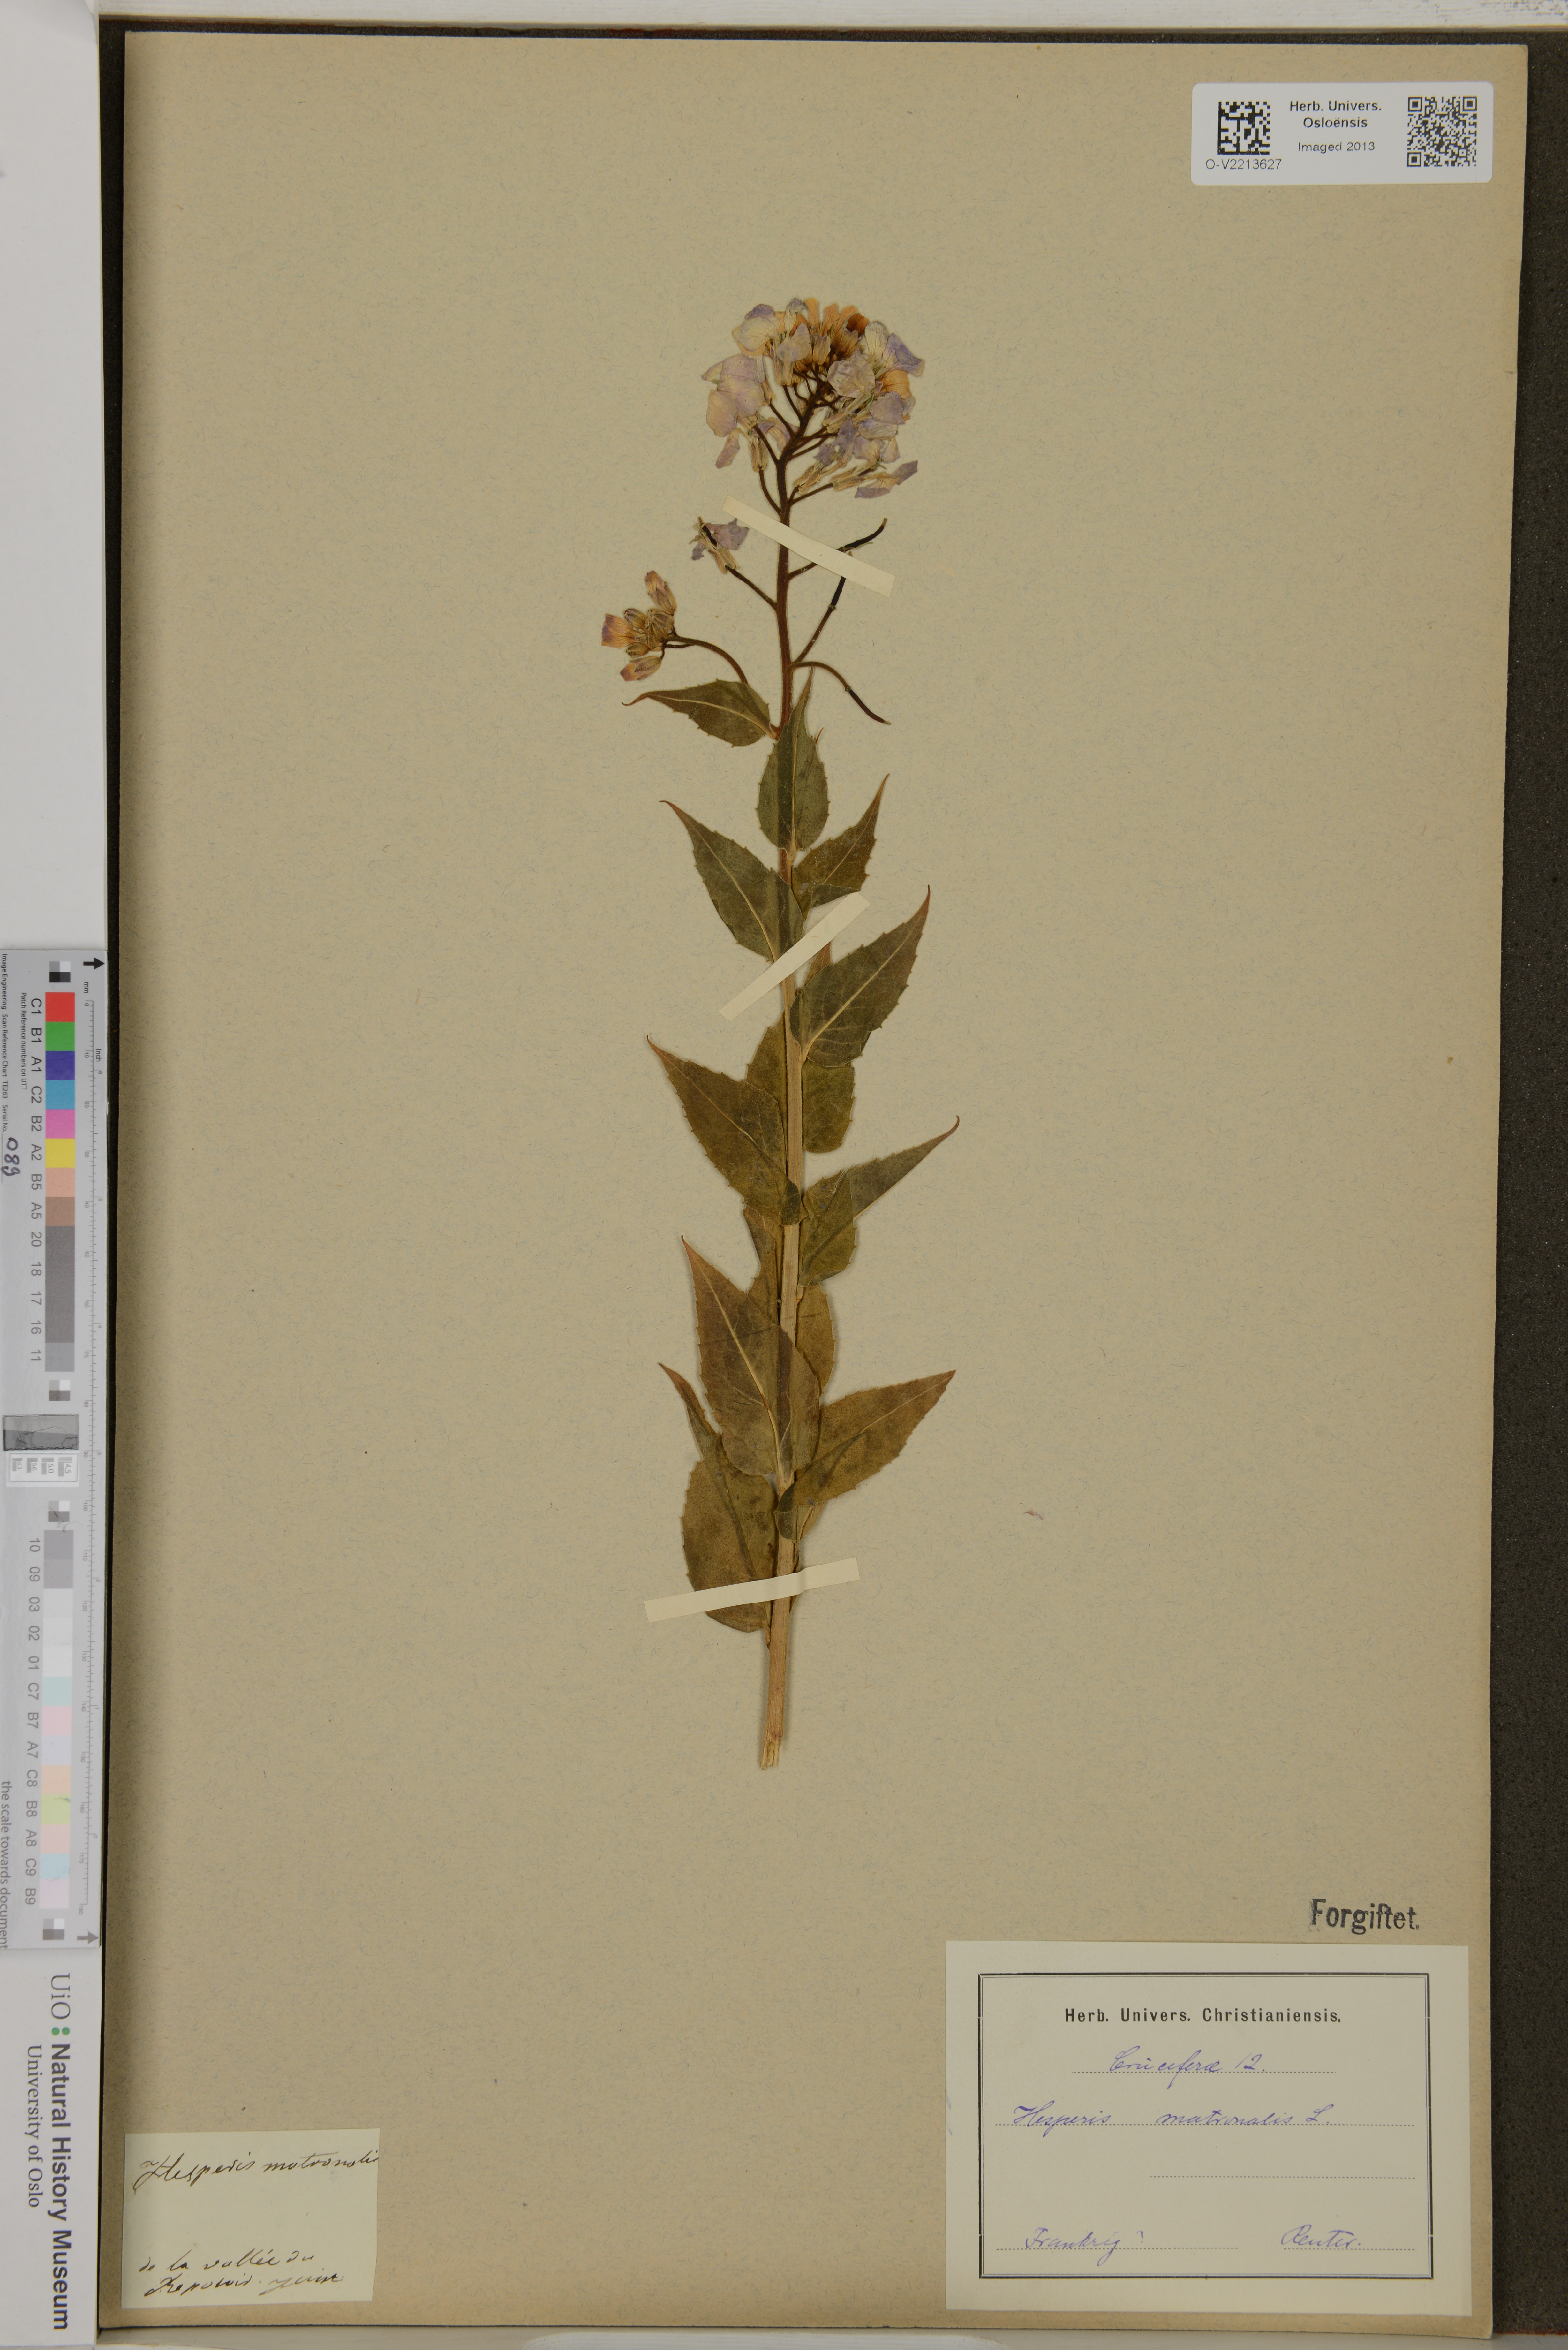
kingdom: Plantae
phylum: Tracheophyta
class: Magnoliopsida
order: Brassicales
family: Brassicaceae
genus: Hesperis
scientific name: Hesperis matronalis
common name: Dame's-violet
